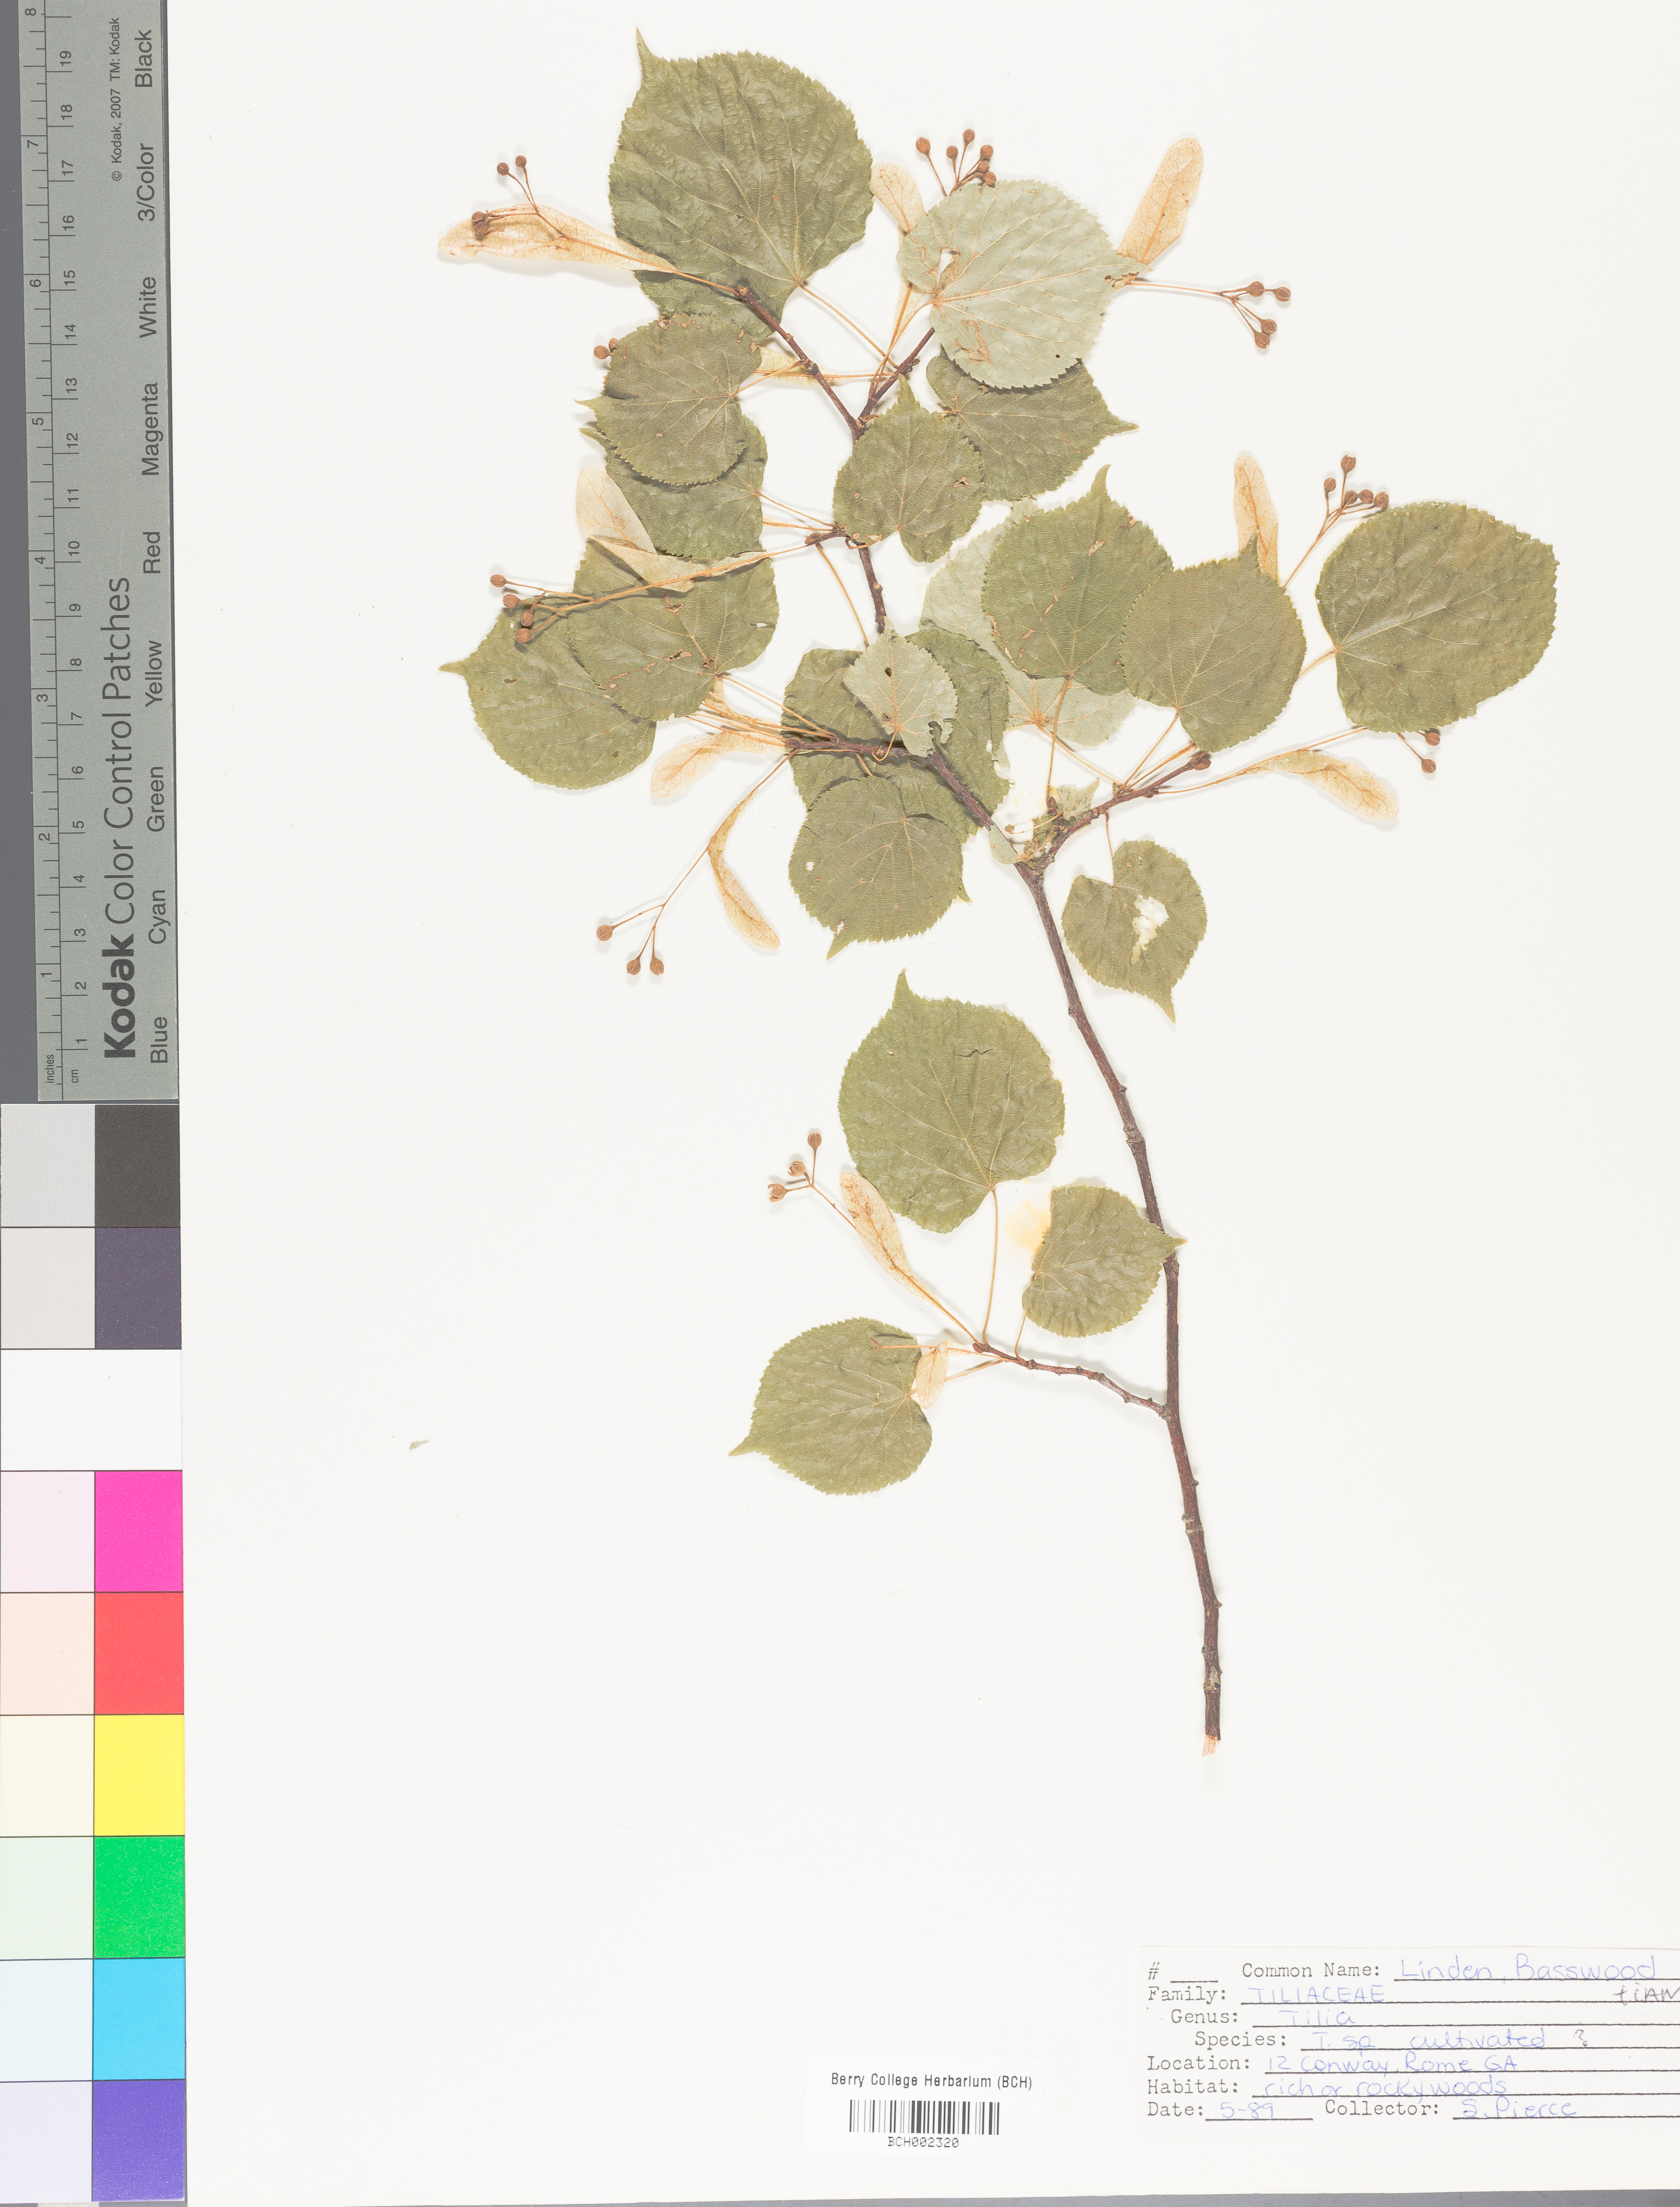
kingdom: Plantae
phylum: Tracheophyta
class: Magnoliopsida
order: Malvales
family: Malvaceae
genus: Tilia
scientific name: Tilia americana
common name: Basswood
